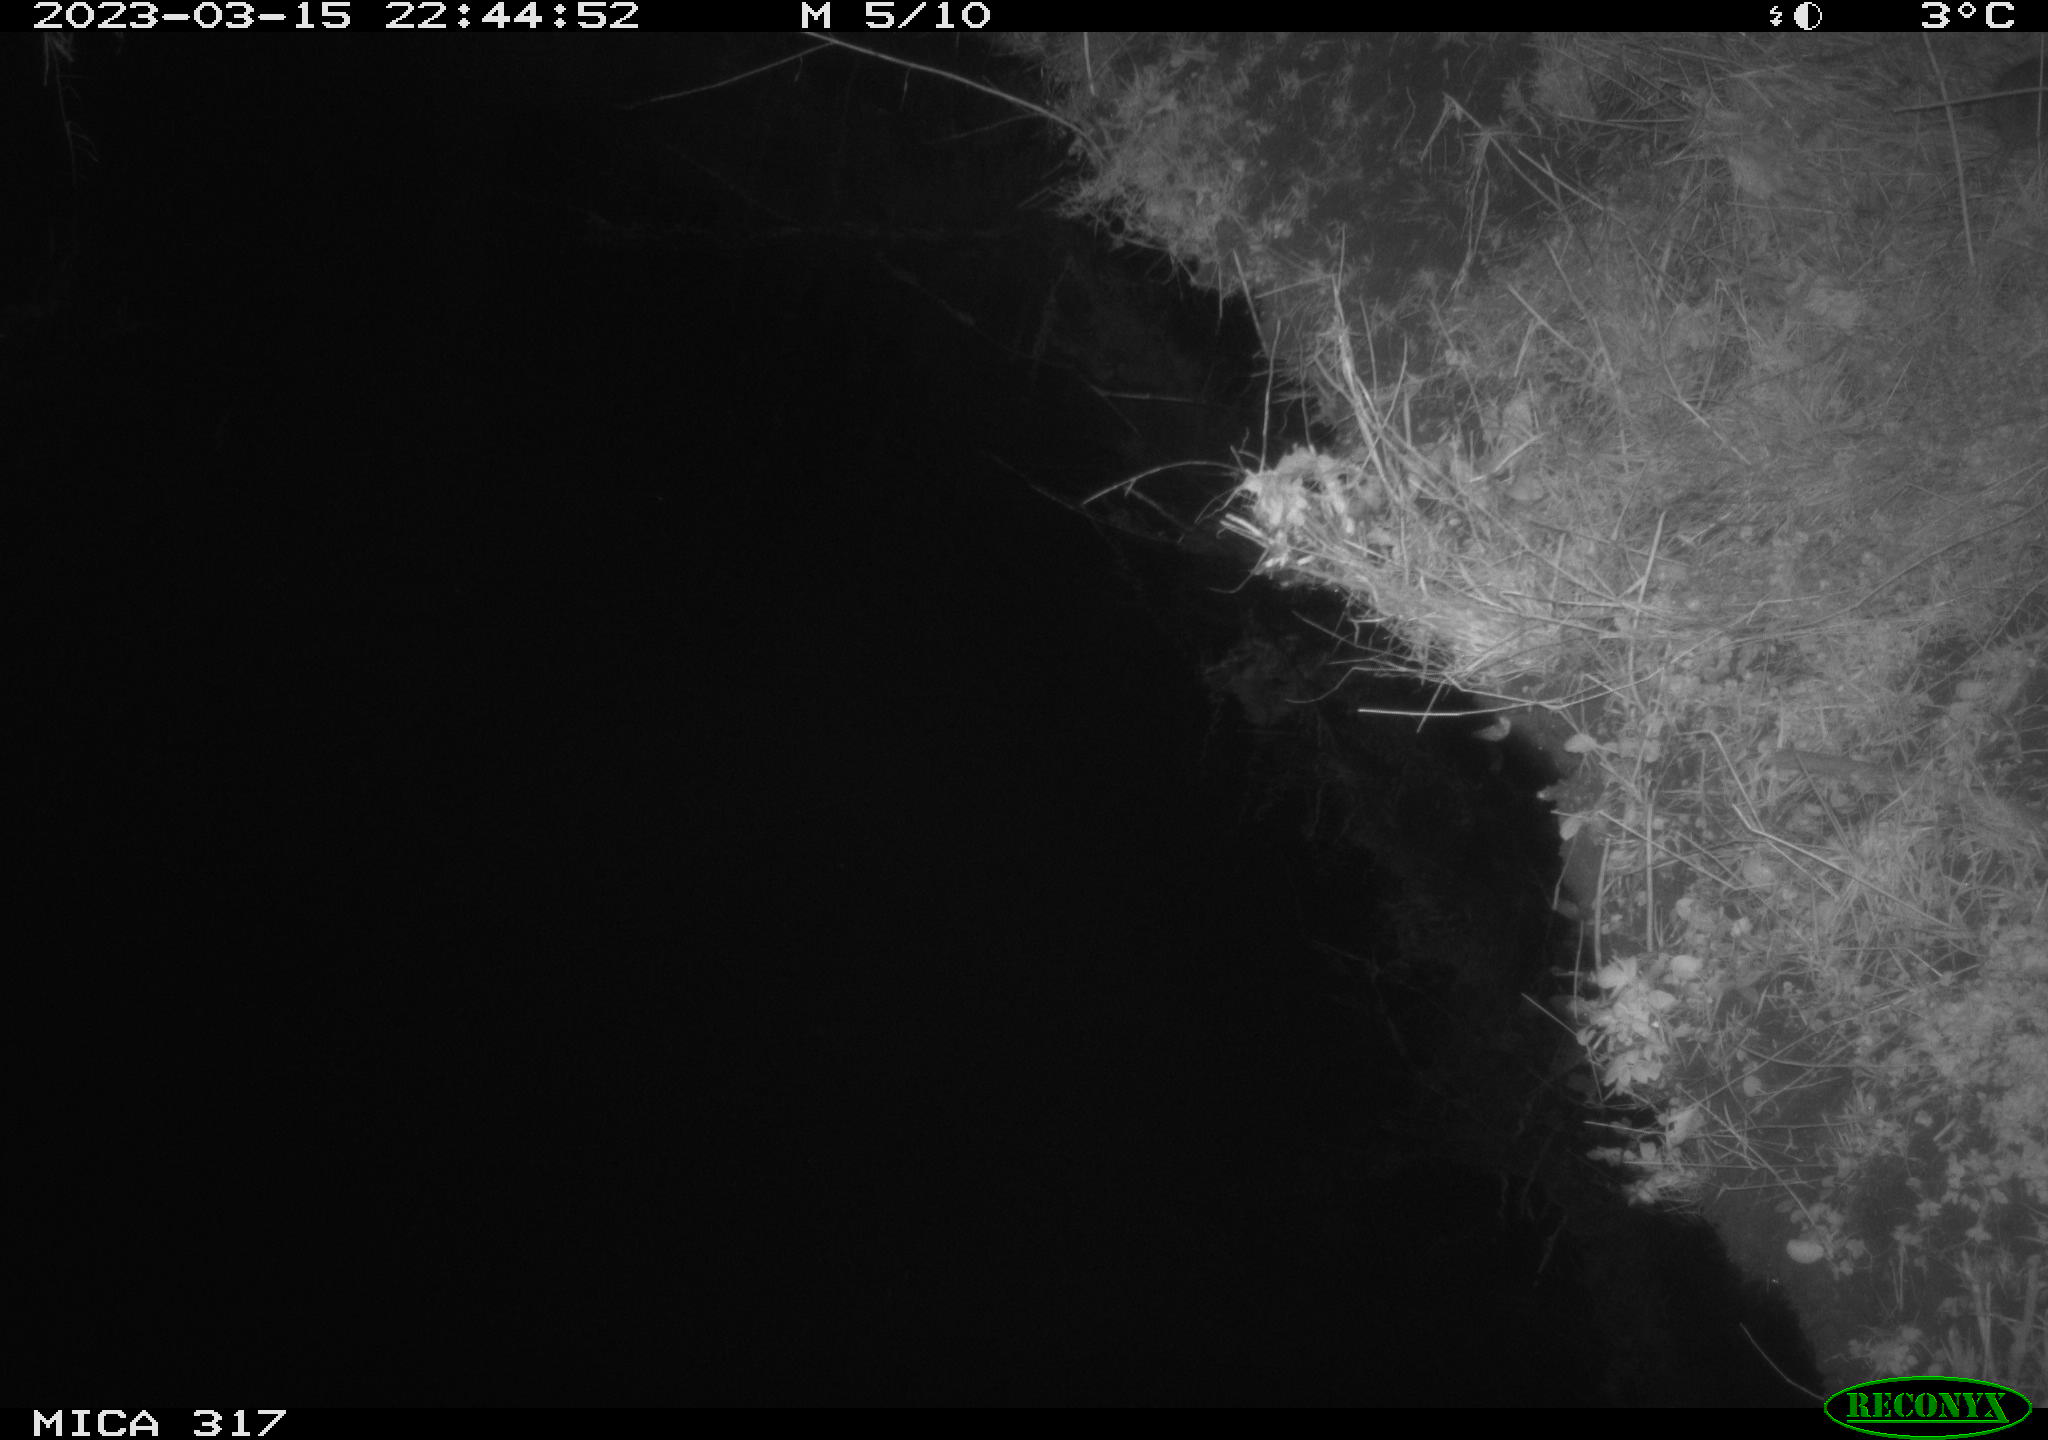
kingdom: Animalia
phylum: Chordata
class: Mammalia
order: Rodentia
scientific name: Rodentia
